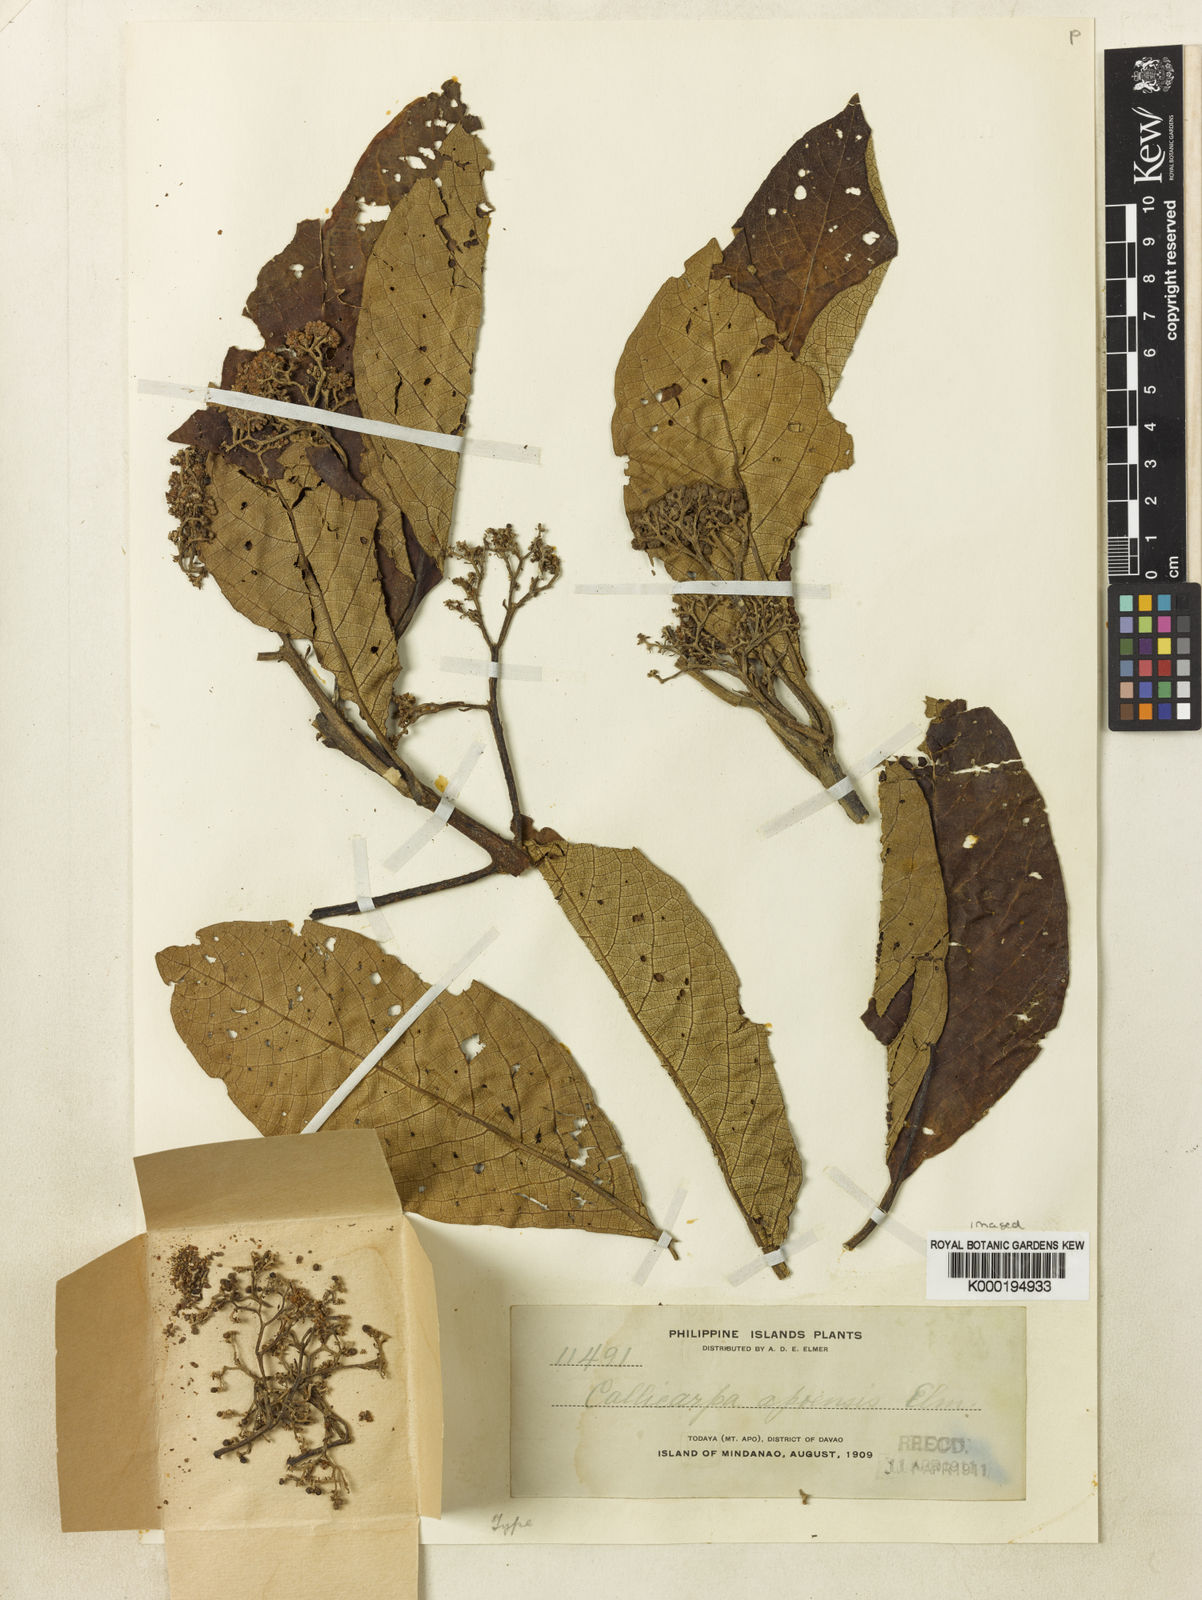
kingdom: Plantae
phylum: Tracheophyta
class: Magnoliopsida
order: Lamiales
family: Lamiaceae
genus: Callicarpa
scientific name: Callicarpa apoensis
